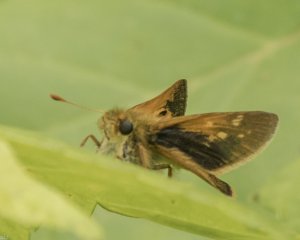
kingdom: Animalia
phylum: Arthropoda
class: Insecta
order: Lepidoptera
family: Hesperiidae
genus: Polites
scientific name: Polites themistocles
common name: Tawny-edged Skipper
